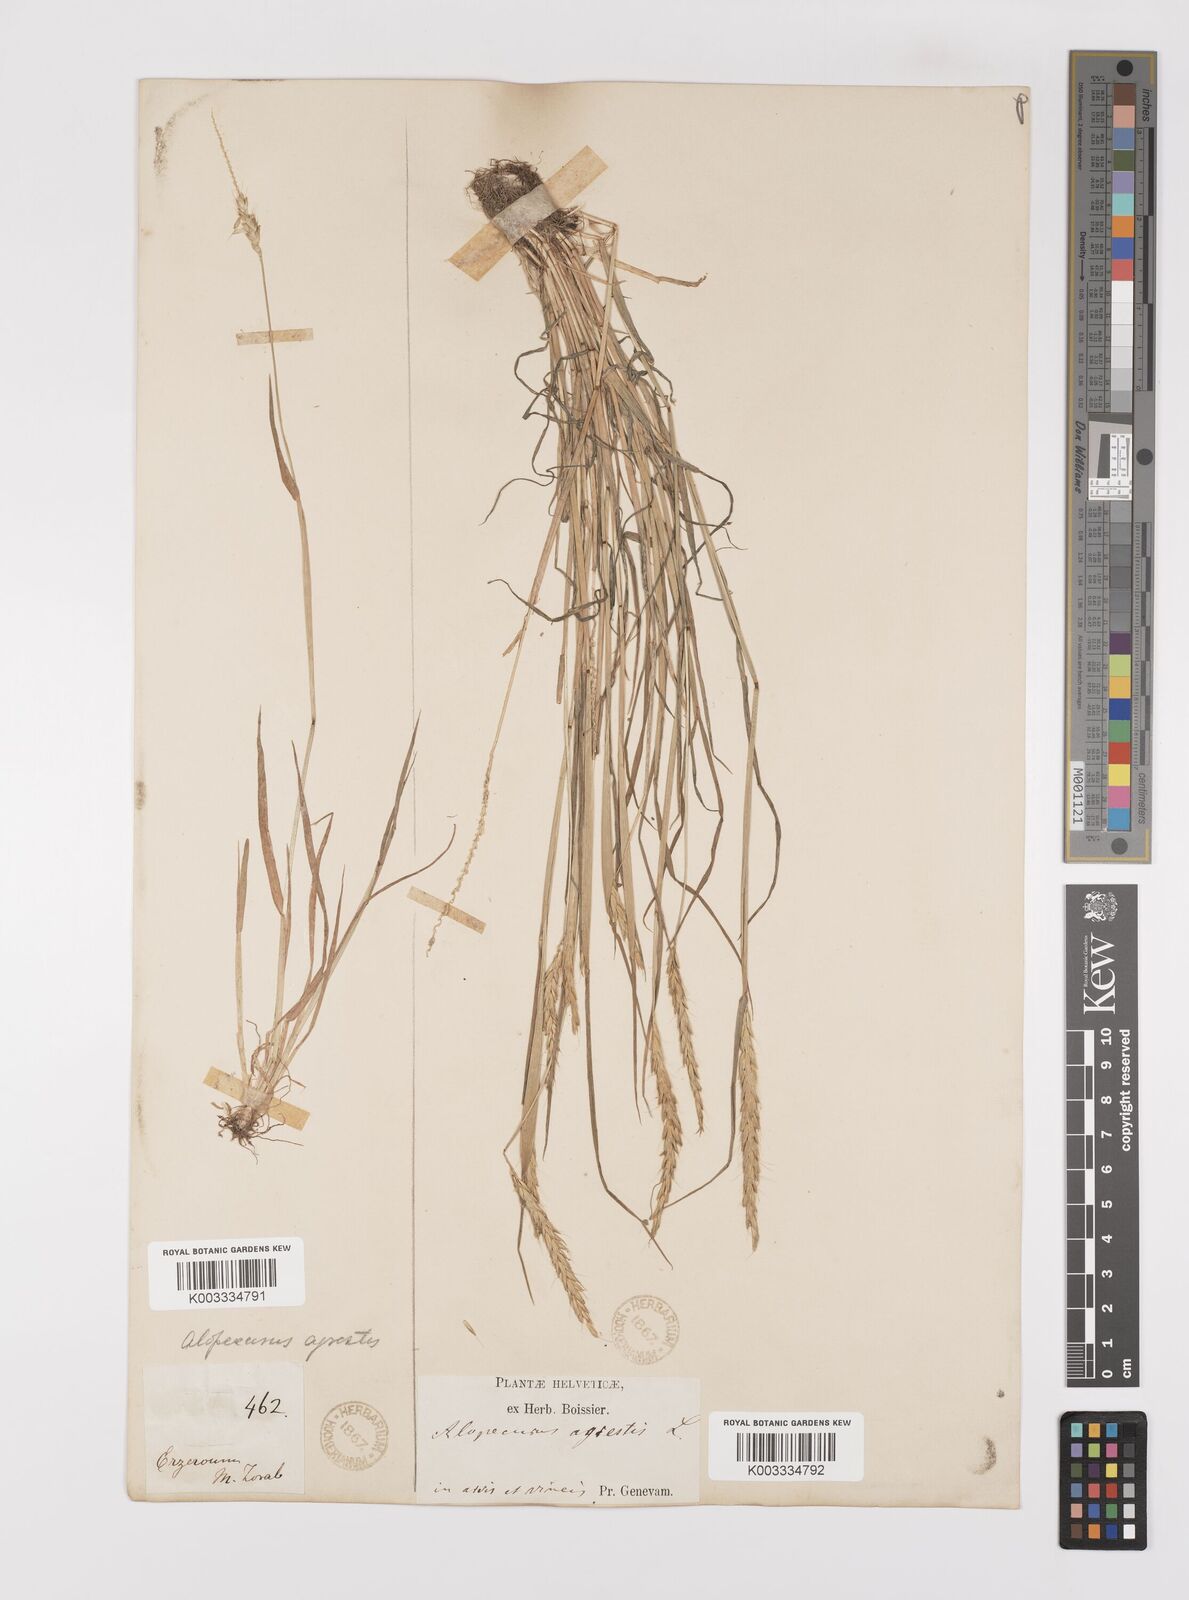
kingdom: Plantae
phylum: Tracheophyta
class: Liliopsida
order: Poales
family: Poaceae
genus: Alopecurus
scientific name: Alopecurus myosuroides
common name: Black-grass
